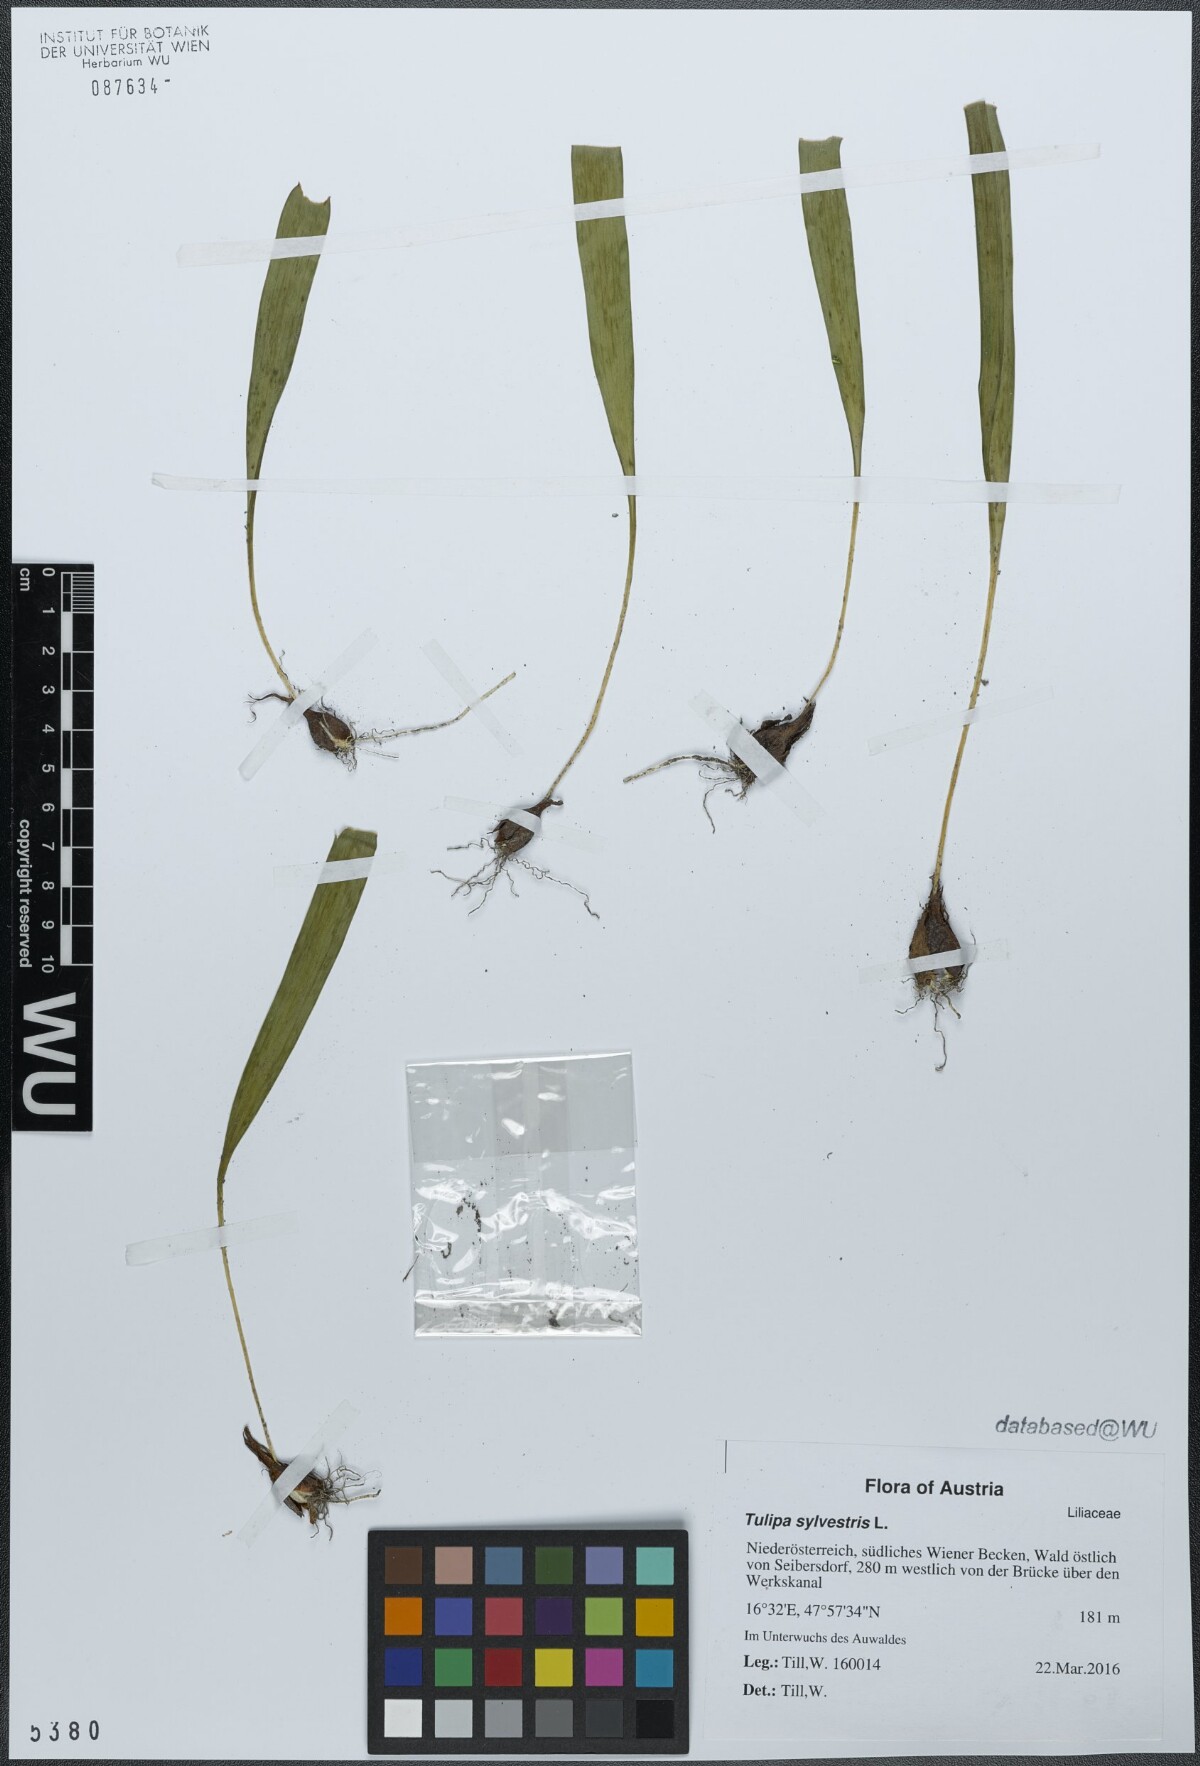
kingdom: Plantae
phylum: Tracheophyta
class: Liliopsida
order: Liliales
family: Liliaceae
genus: Tulipa
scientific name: Tulipa sylvestris
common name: Wild tulip
